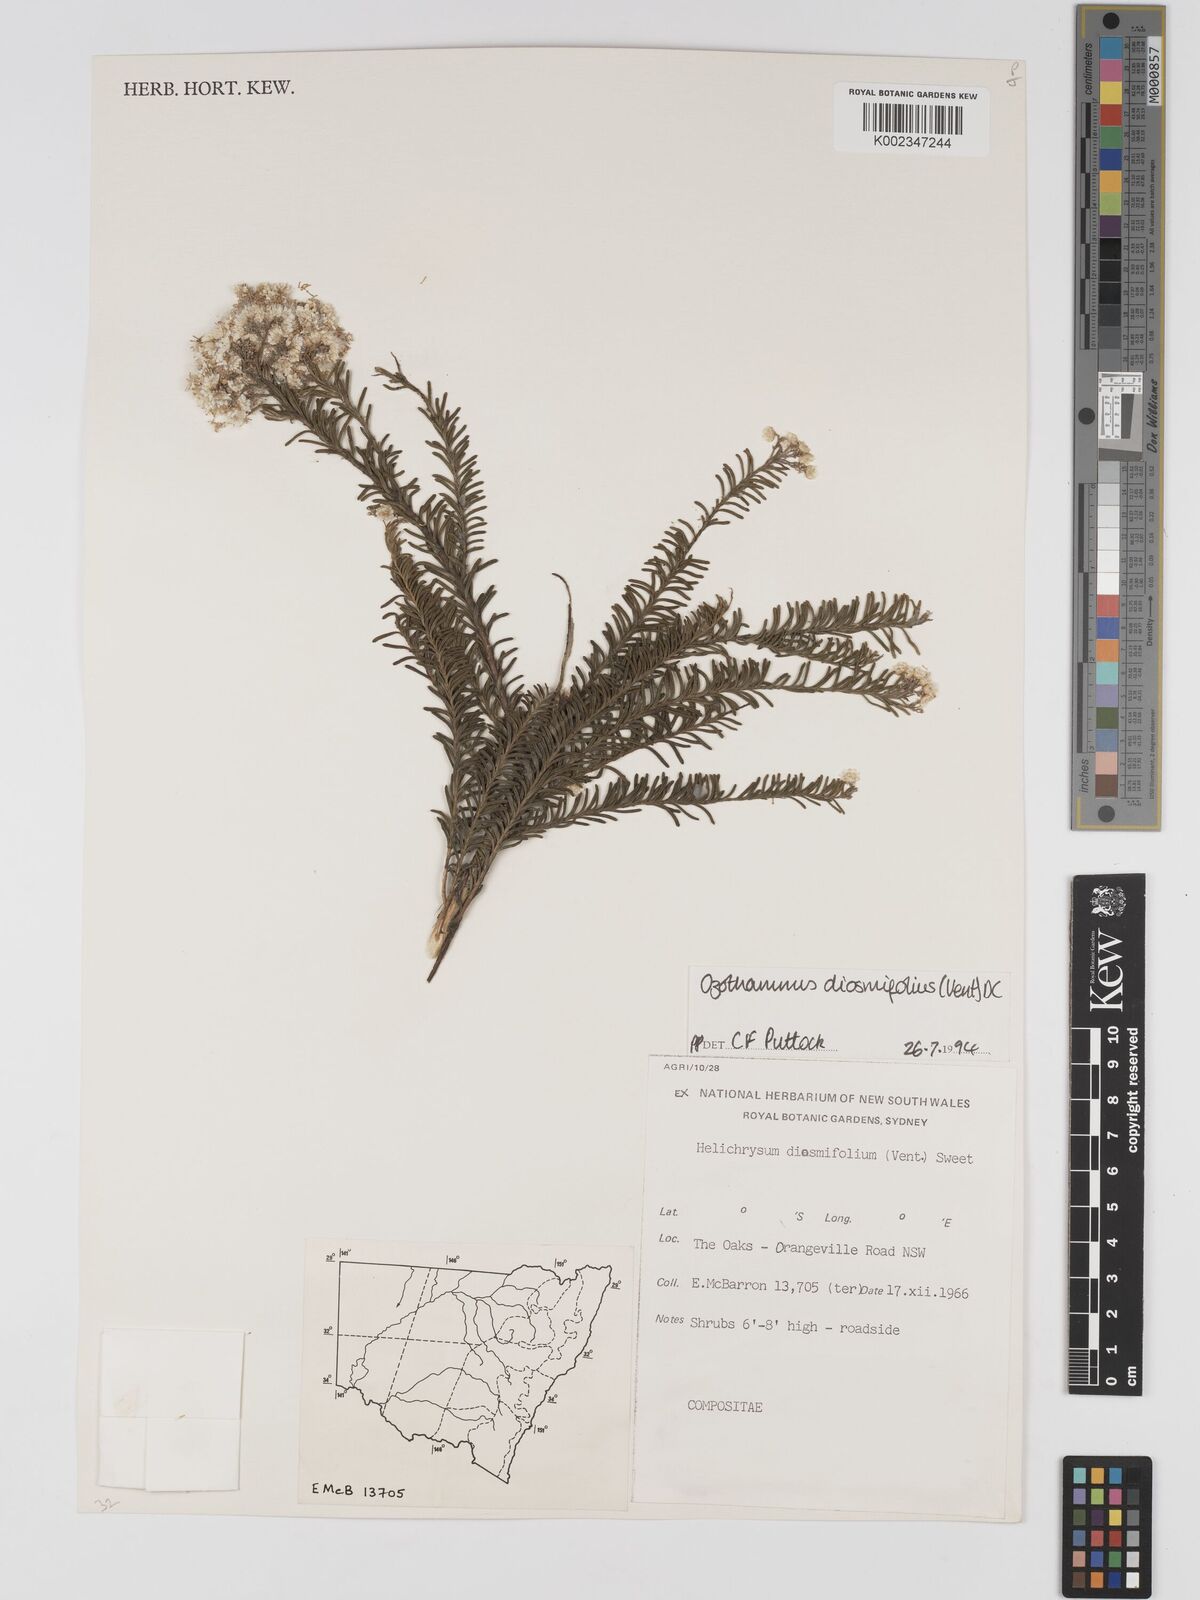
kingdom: Plantae
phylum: Tracheophyta
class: Magnoliopsida
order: Asterales
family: Asteraceae
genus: Ozothamnus
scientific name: Ozothamnus diosmifolius
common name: White-dogwood
